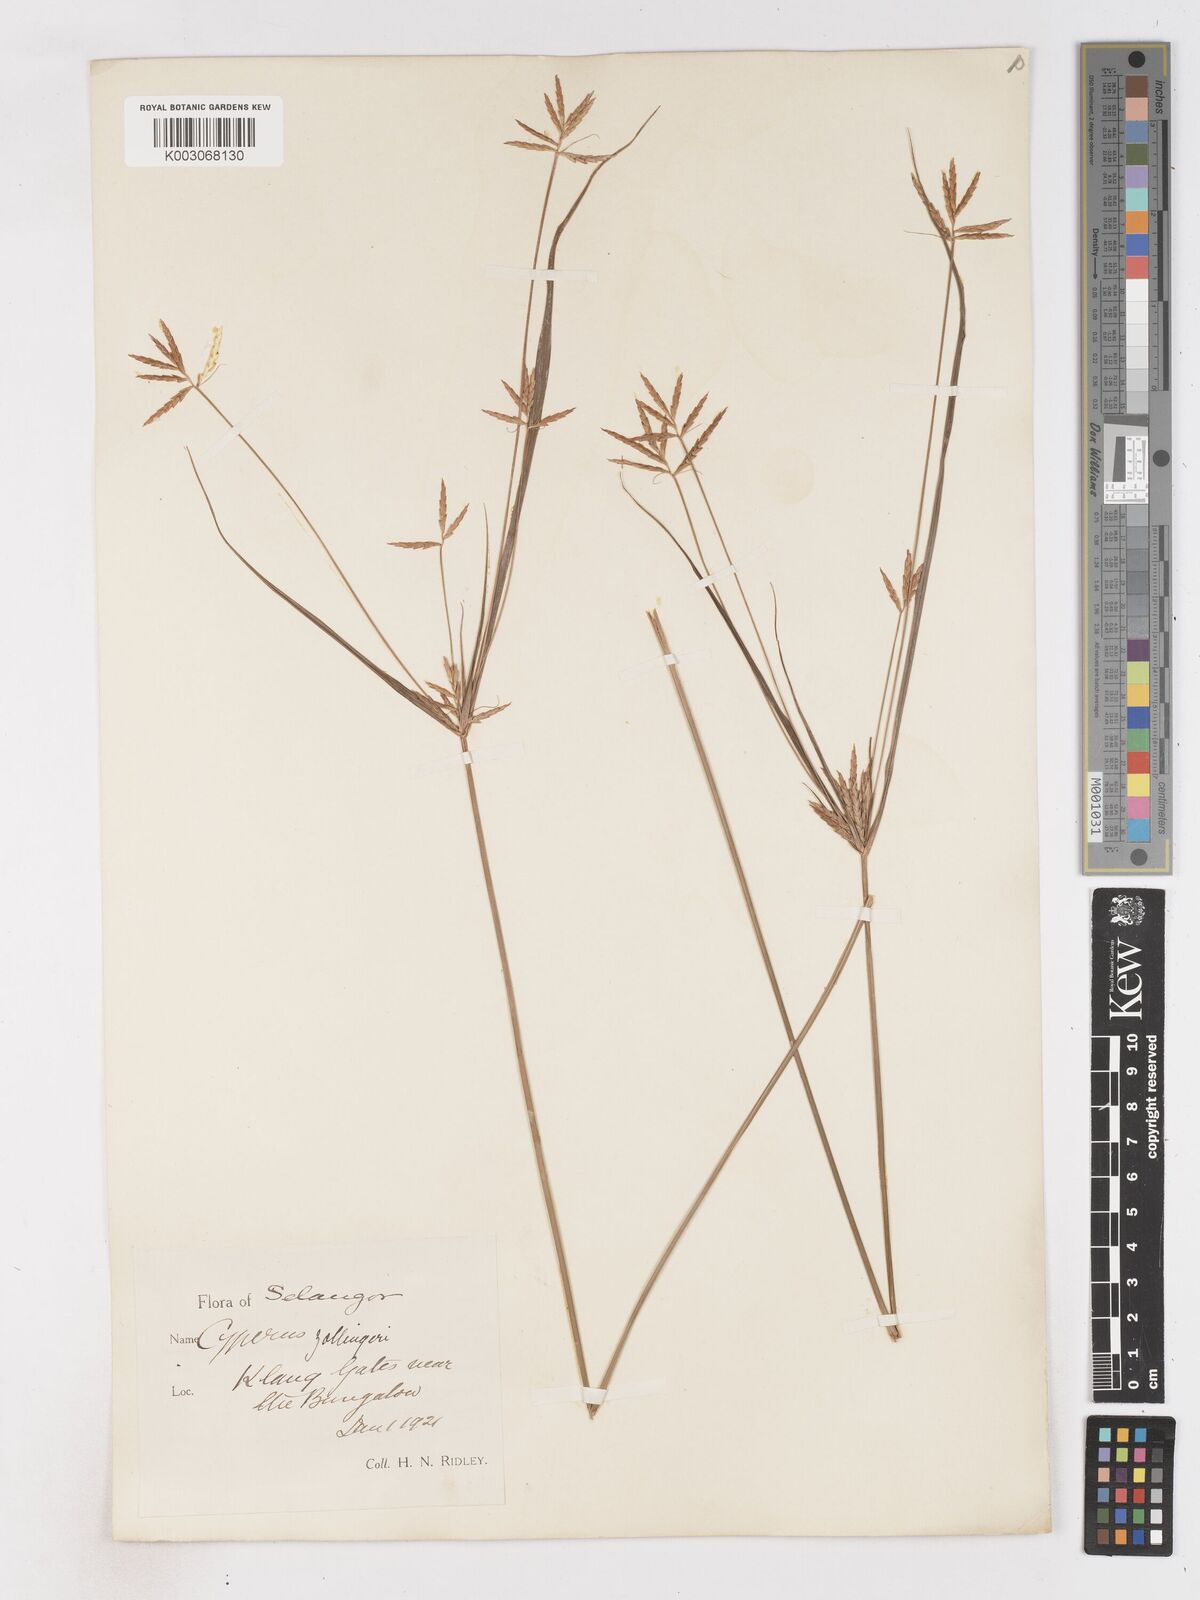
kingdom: Plantae
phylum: Tracheophyta
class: Liliopsida
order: Poales
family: Cyperaceae
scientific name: Cyperaceae
